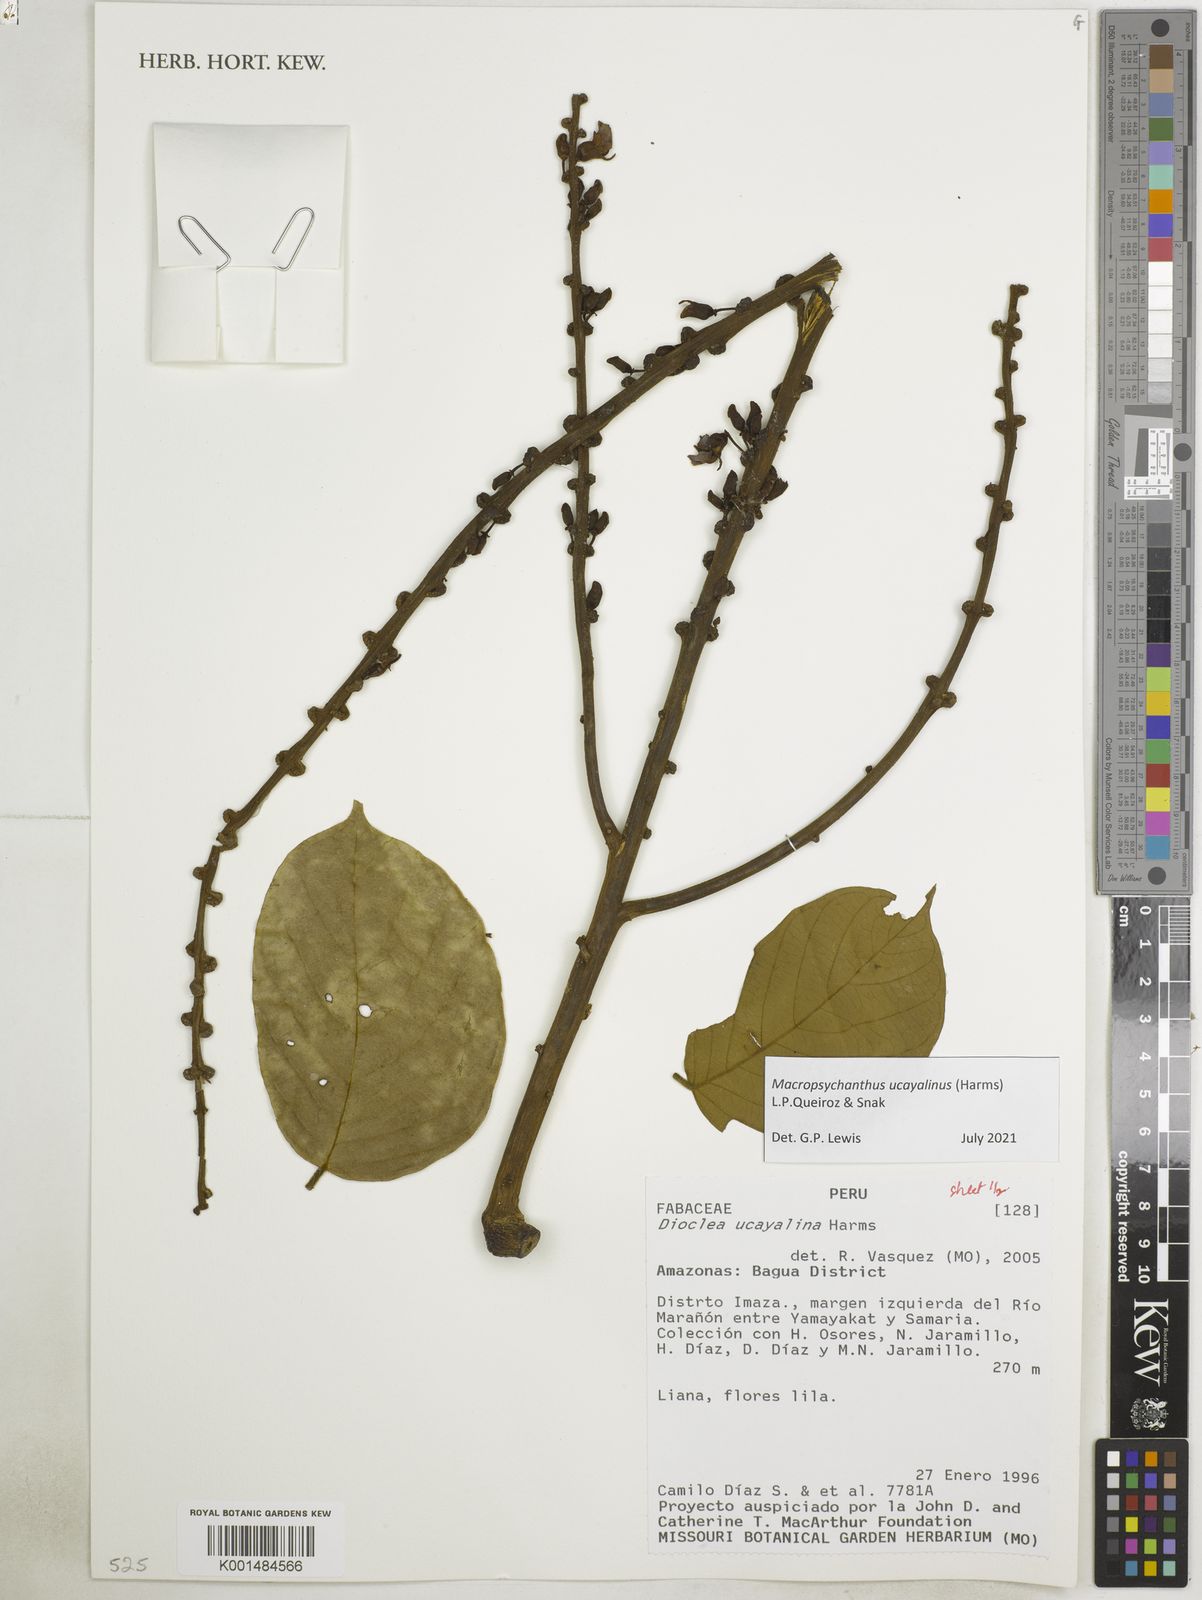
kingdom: Plantae
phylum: Tracheophyta
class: Magnoliopsida
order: Fabales
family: Fabaceae
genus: Macropsychanthus
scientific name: Macropsychanthus
